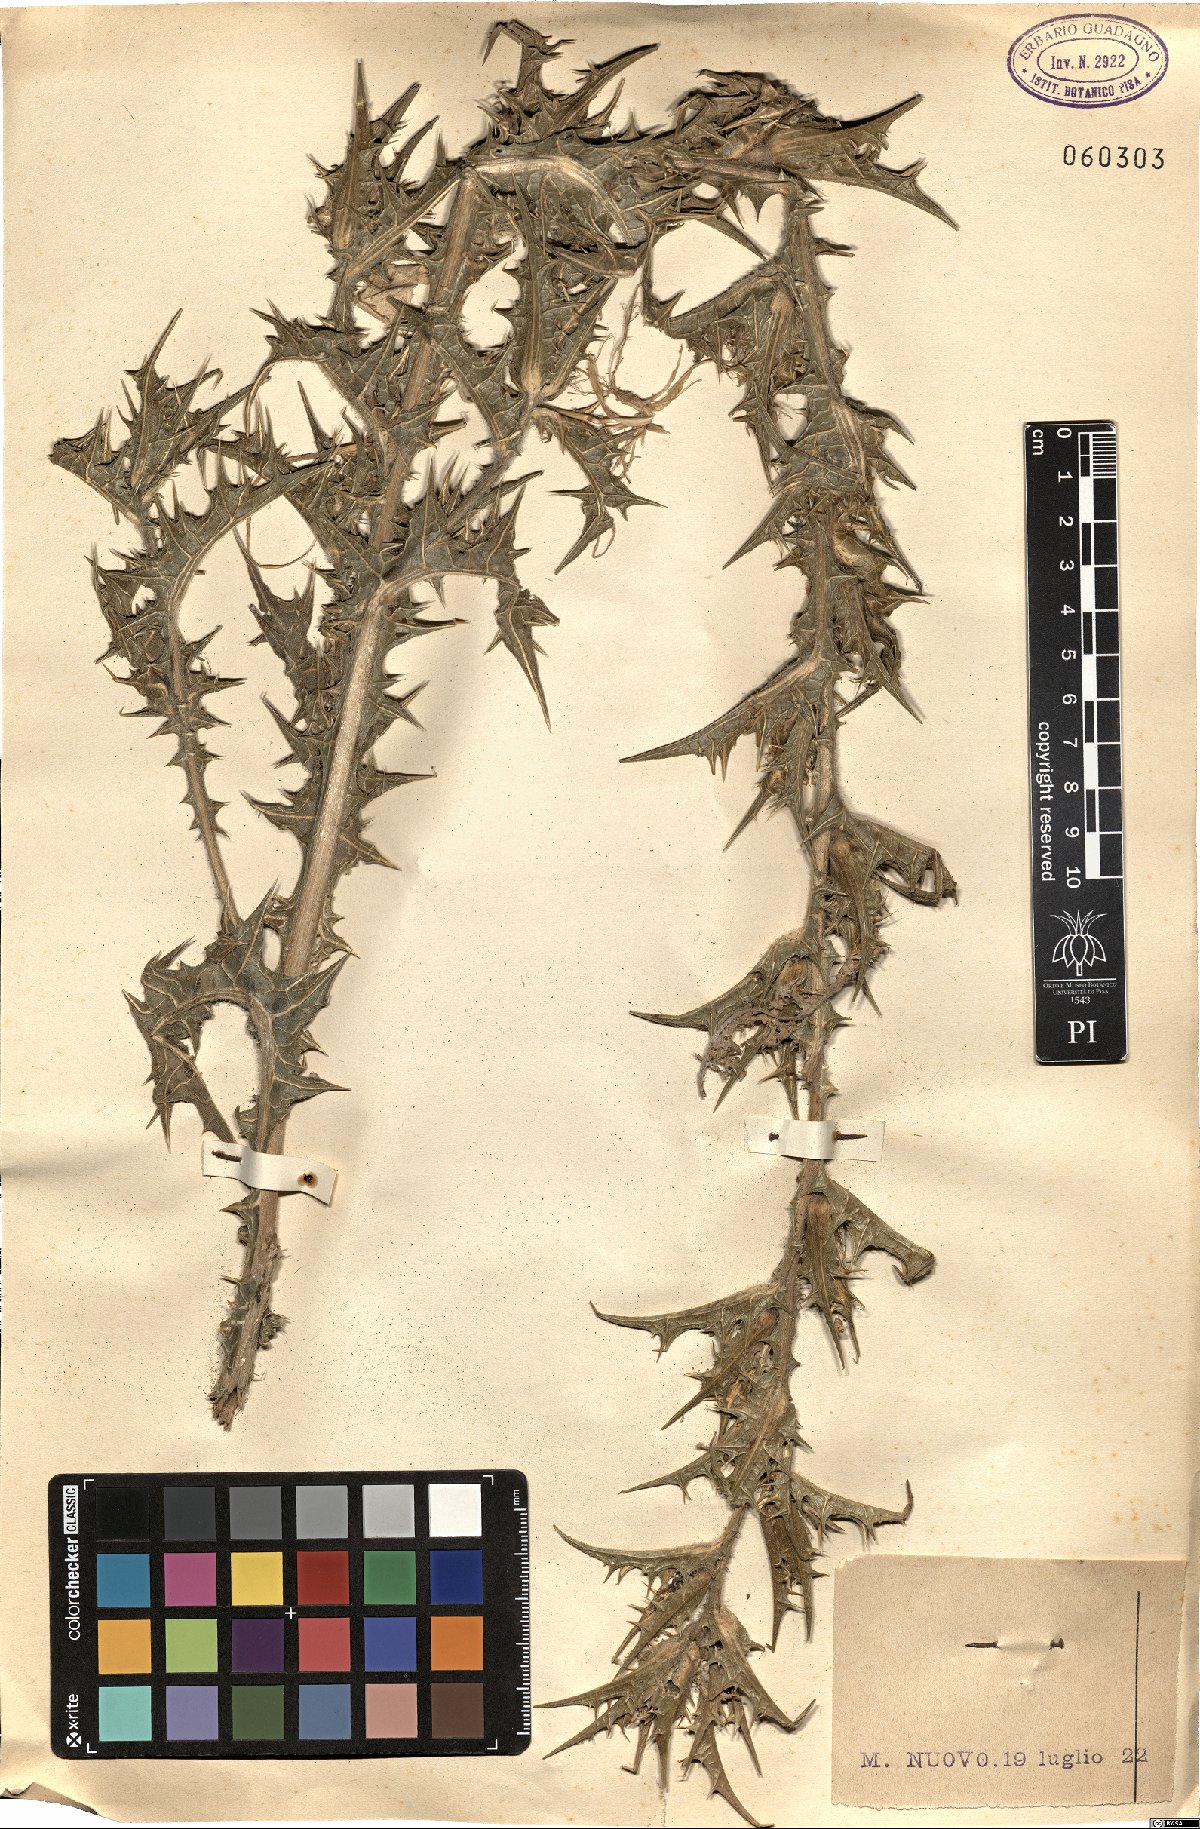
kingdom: Plantae
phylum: Tracheophyta
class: Magnoliopsida
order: Asterales
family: Asteraceae
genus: Carthamus
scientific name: Carthamus lanatus
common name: Downy safflower
